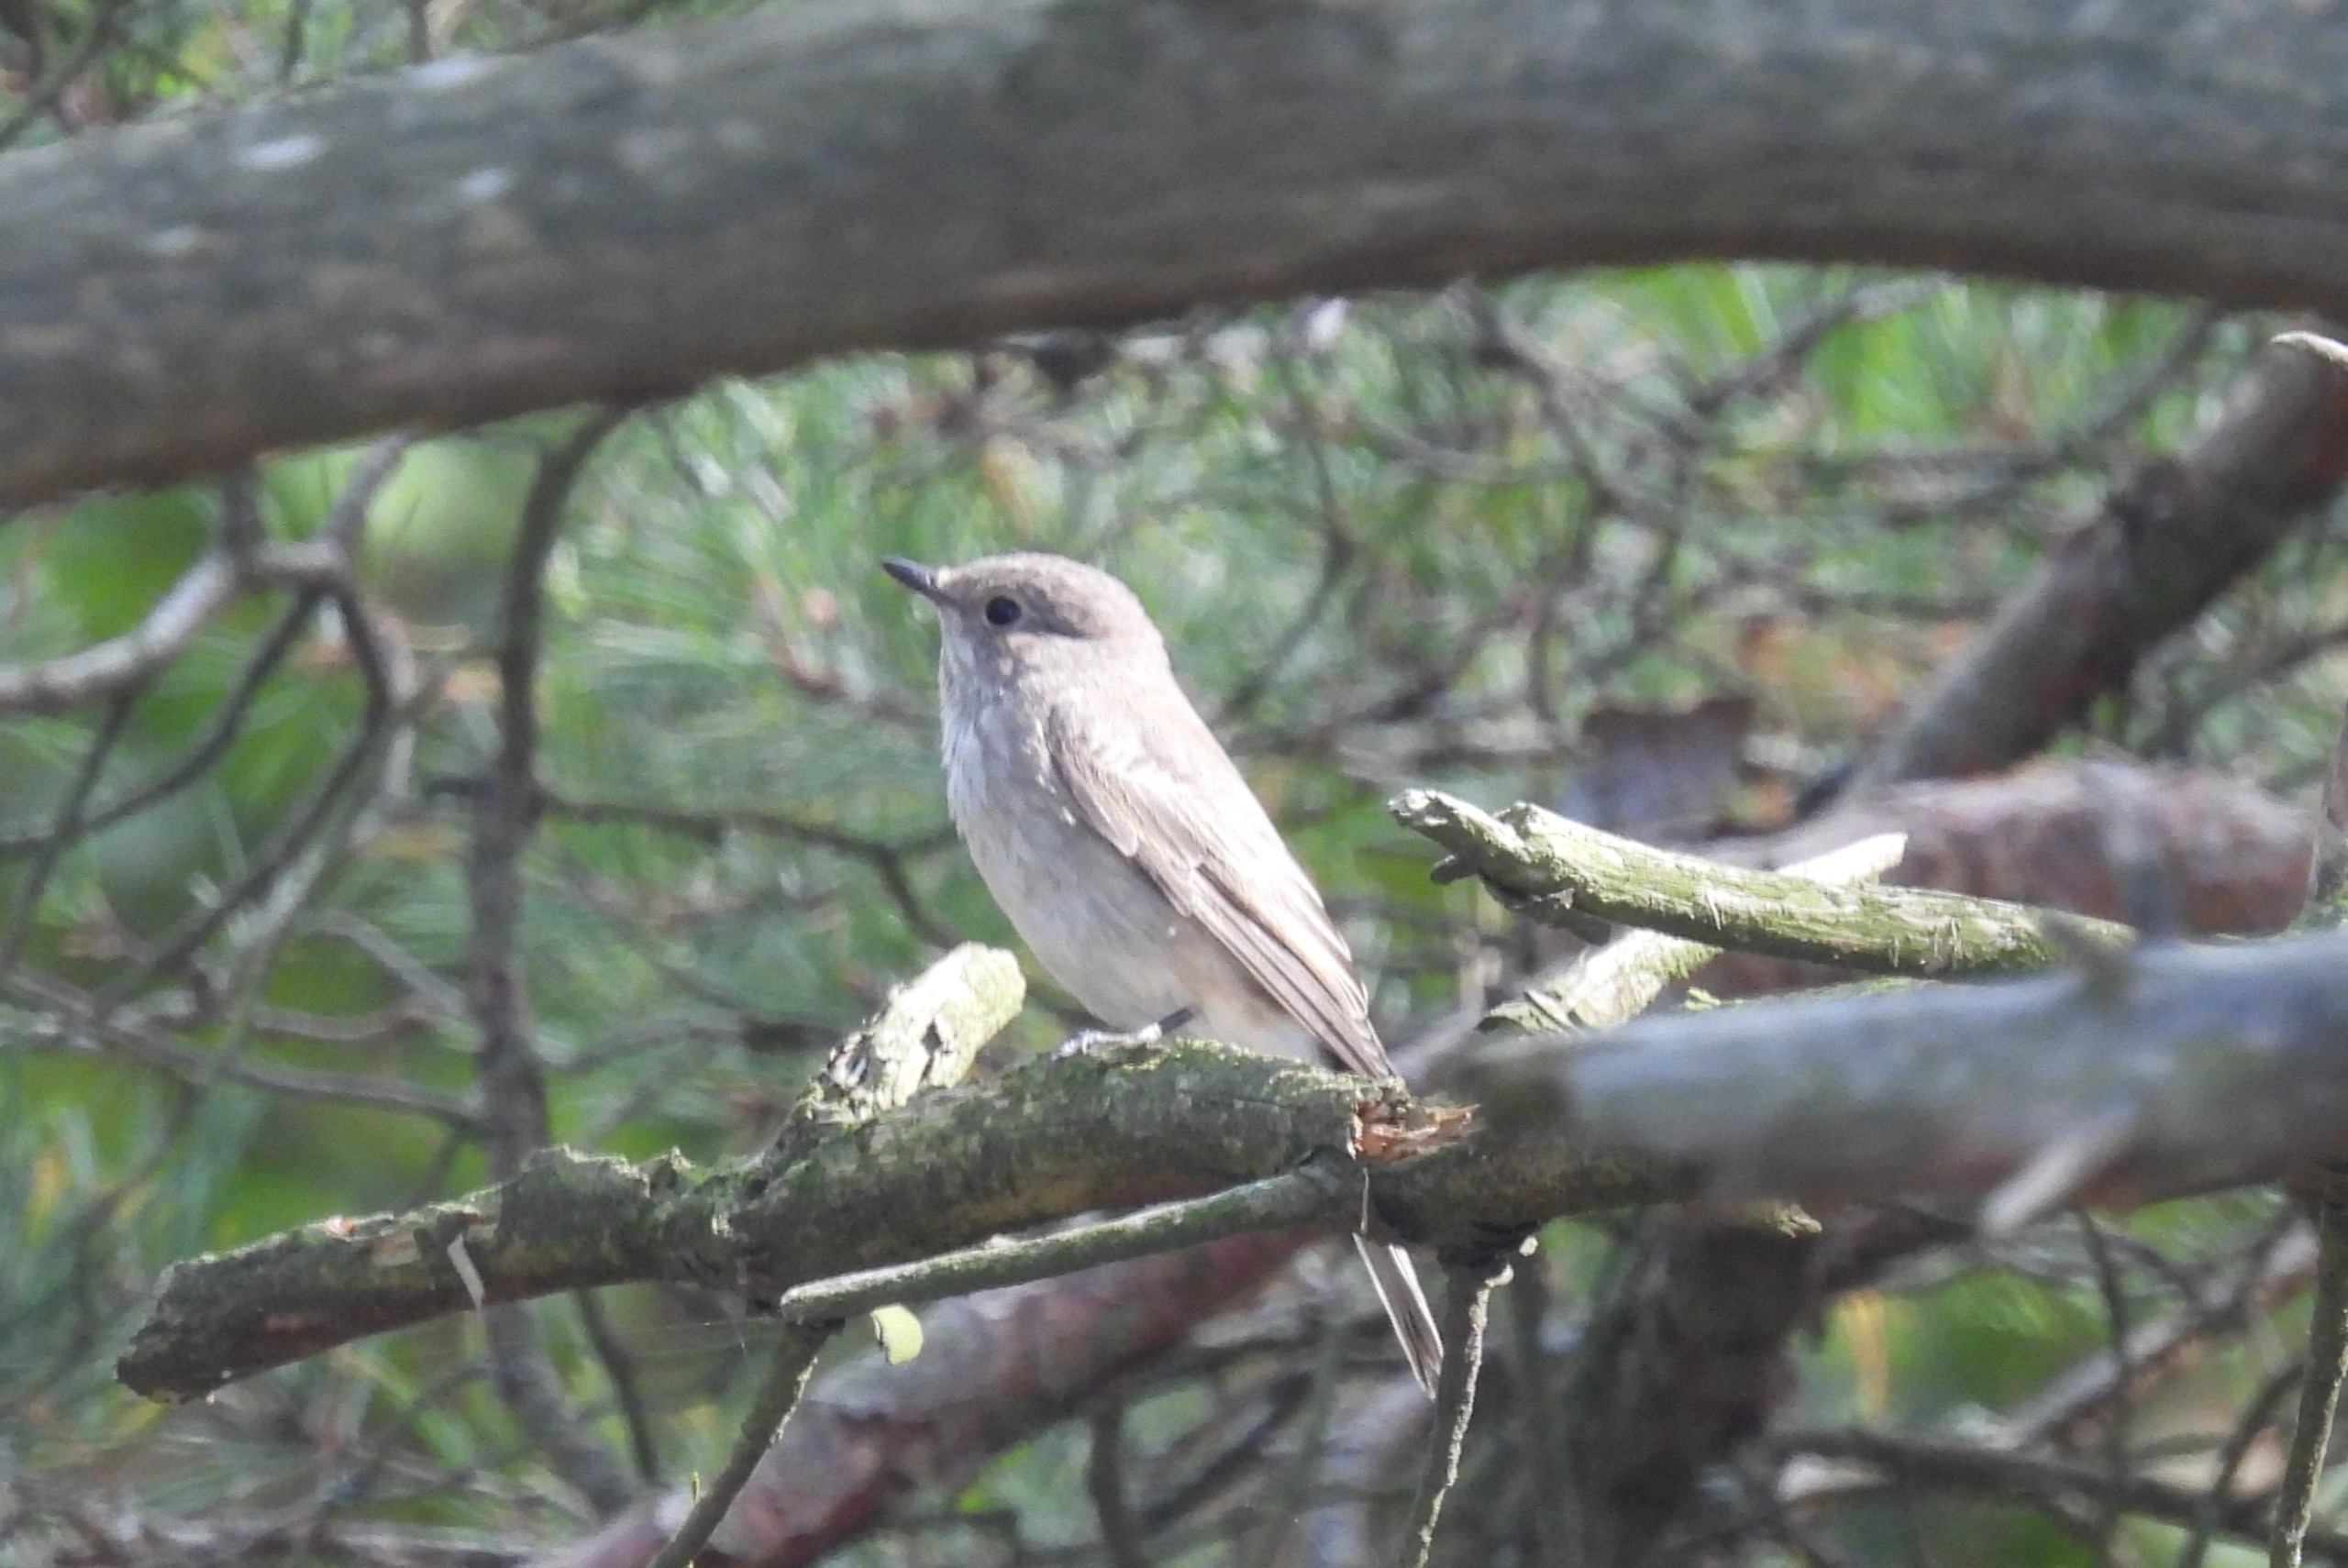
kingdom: Animalia
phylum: Chordata
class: Aves
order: Passeriformes
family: Muscicapidae
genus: Muscicapa
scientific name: Muscicapa striata
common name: Grå fluesnapper
